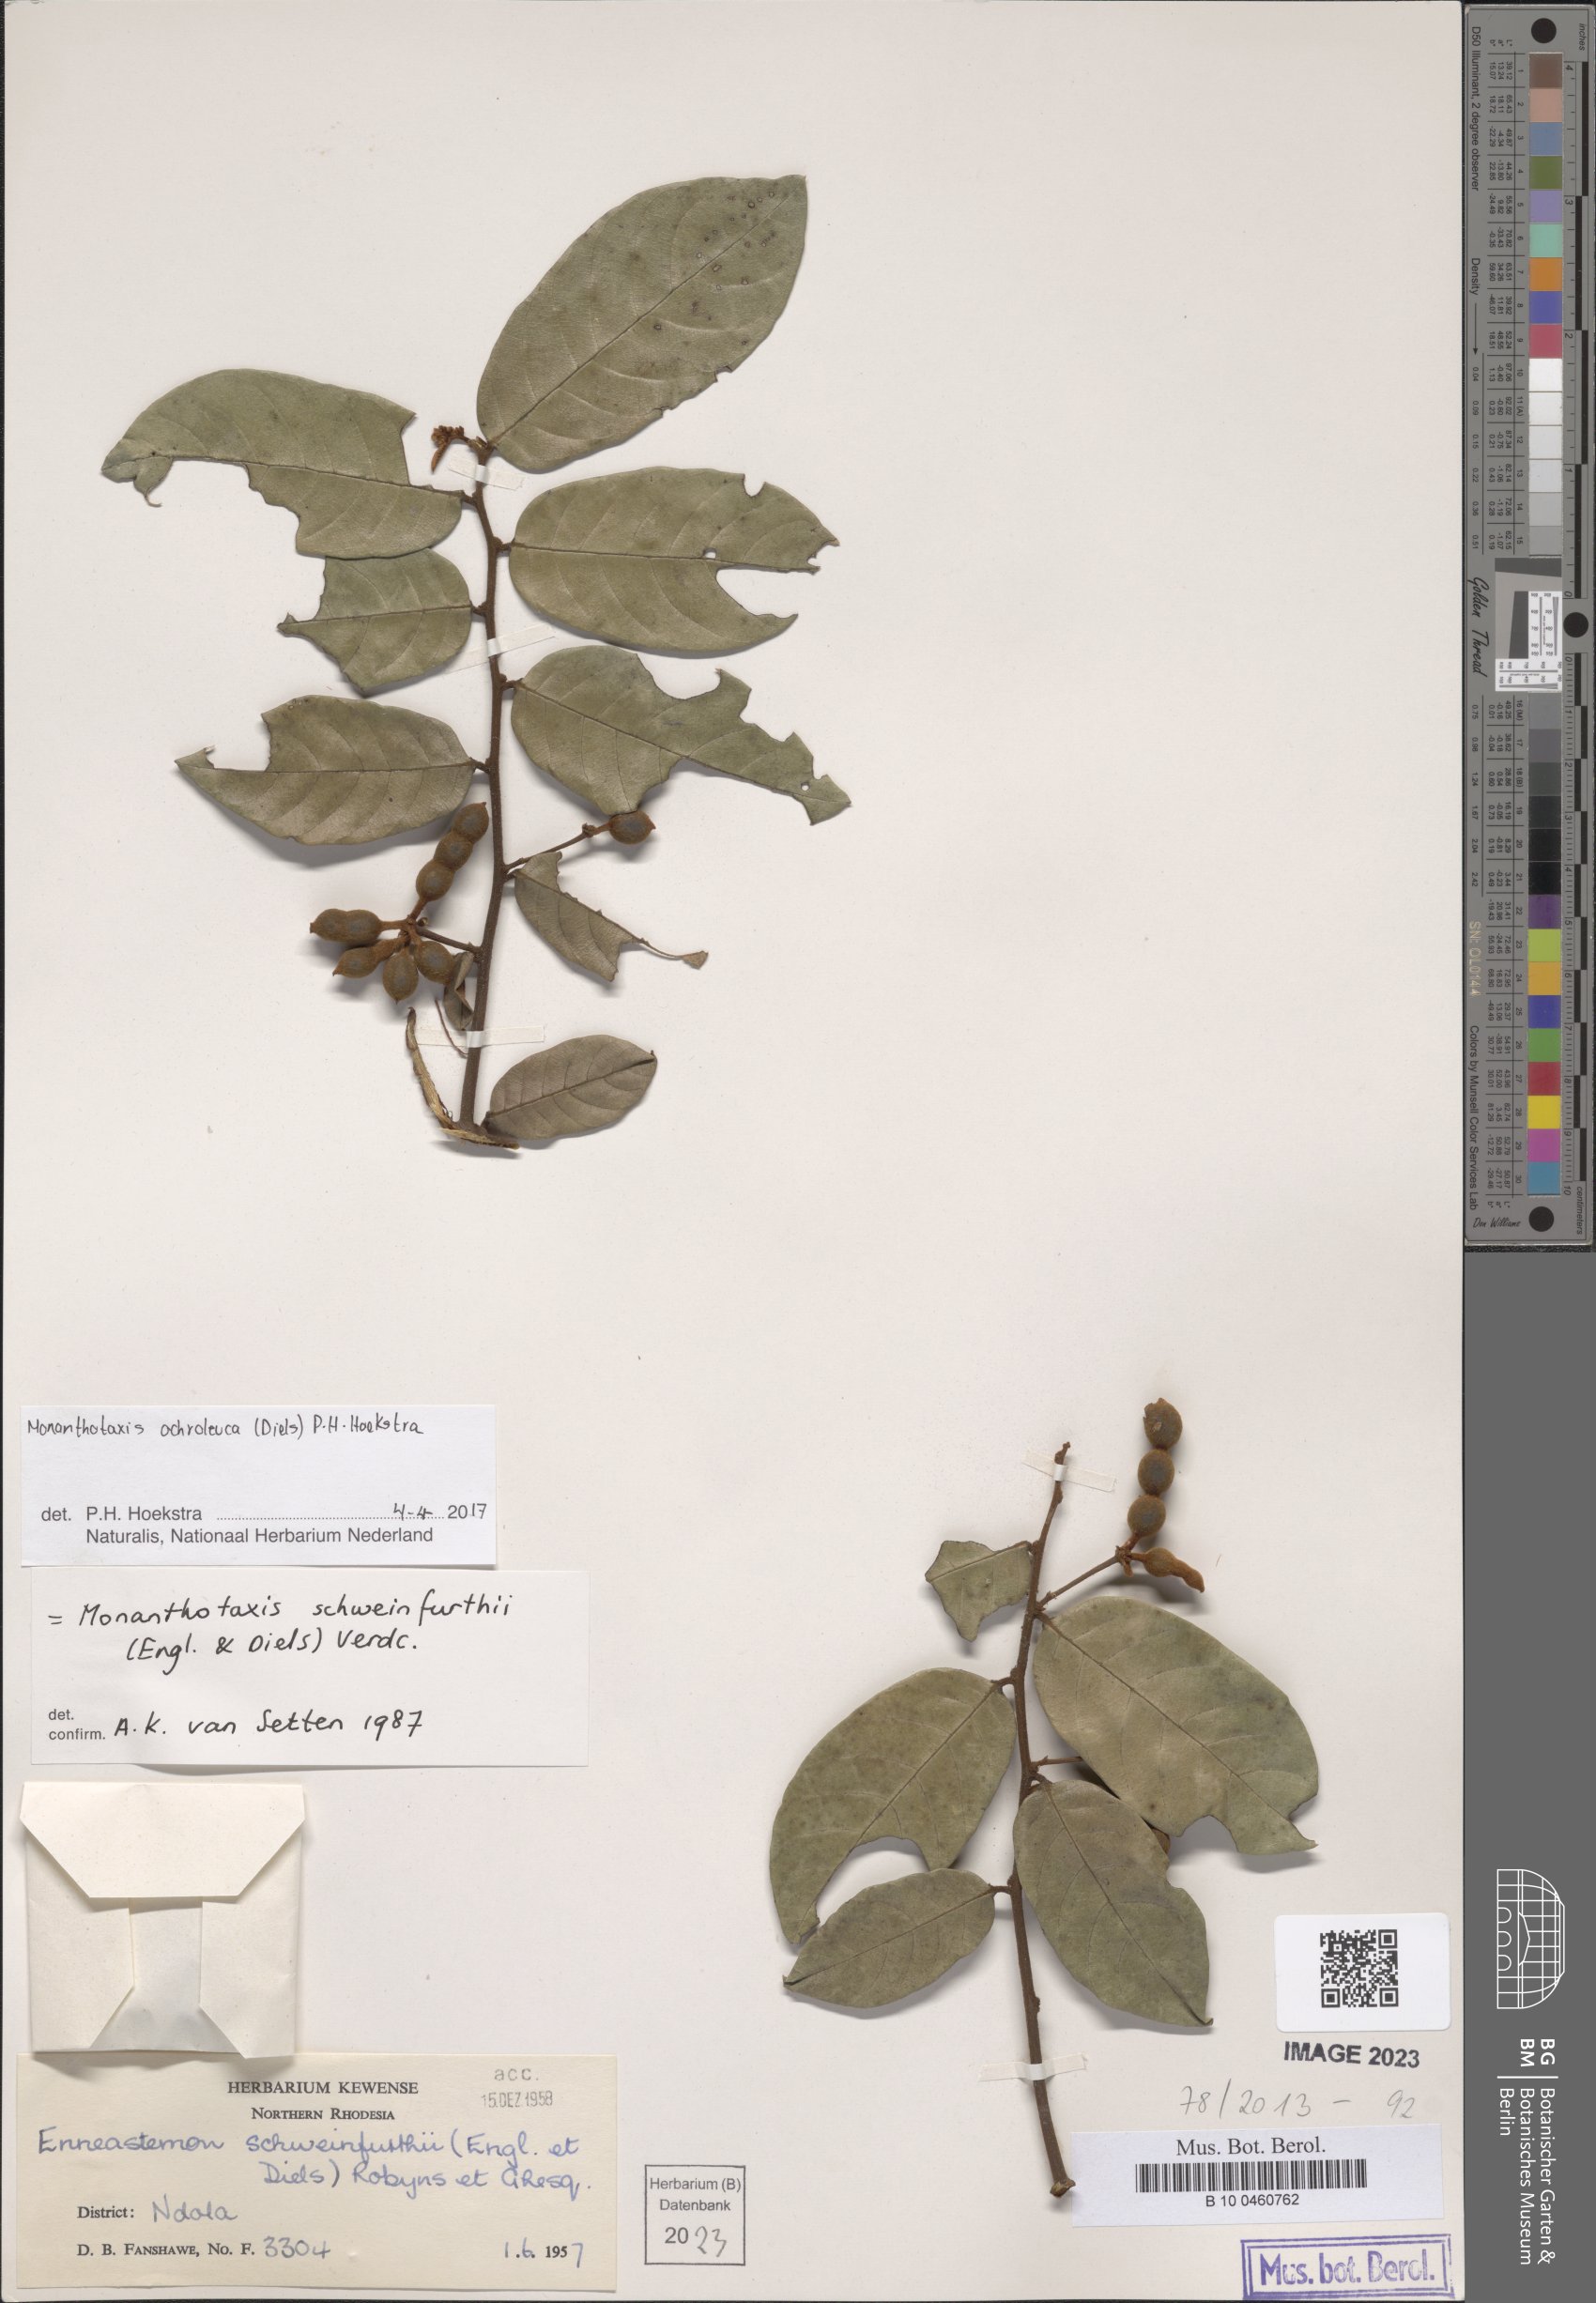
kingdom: Plantae
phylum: Tracheophyta
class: Magnoliopsida
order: Magnoliales
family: Annonaceae
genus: Monanthotaxis
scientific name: Monanthotaxis
